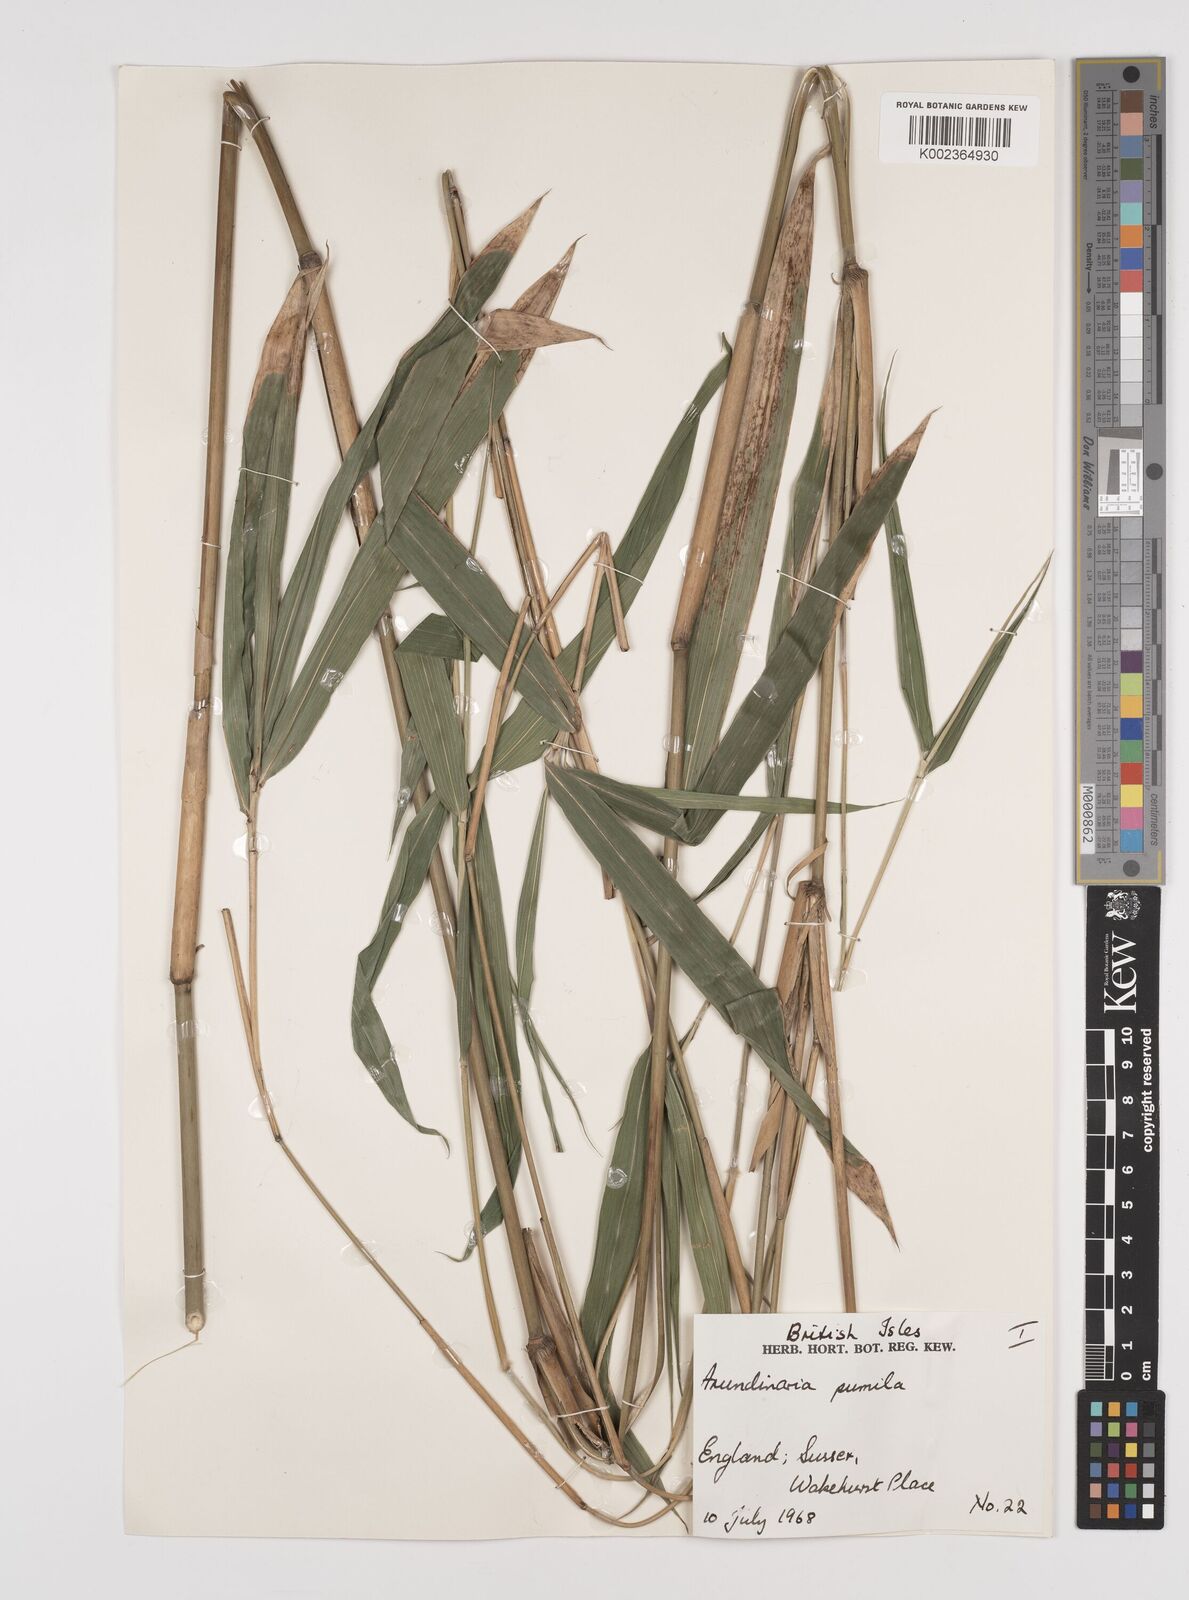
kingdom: Plantae
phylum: Tracheophyta
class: Liliopsida
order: Poales
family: Poaceae
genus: Pleioblastus
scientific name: Pleioblastus argenteostriatus
